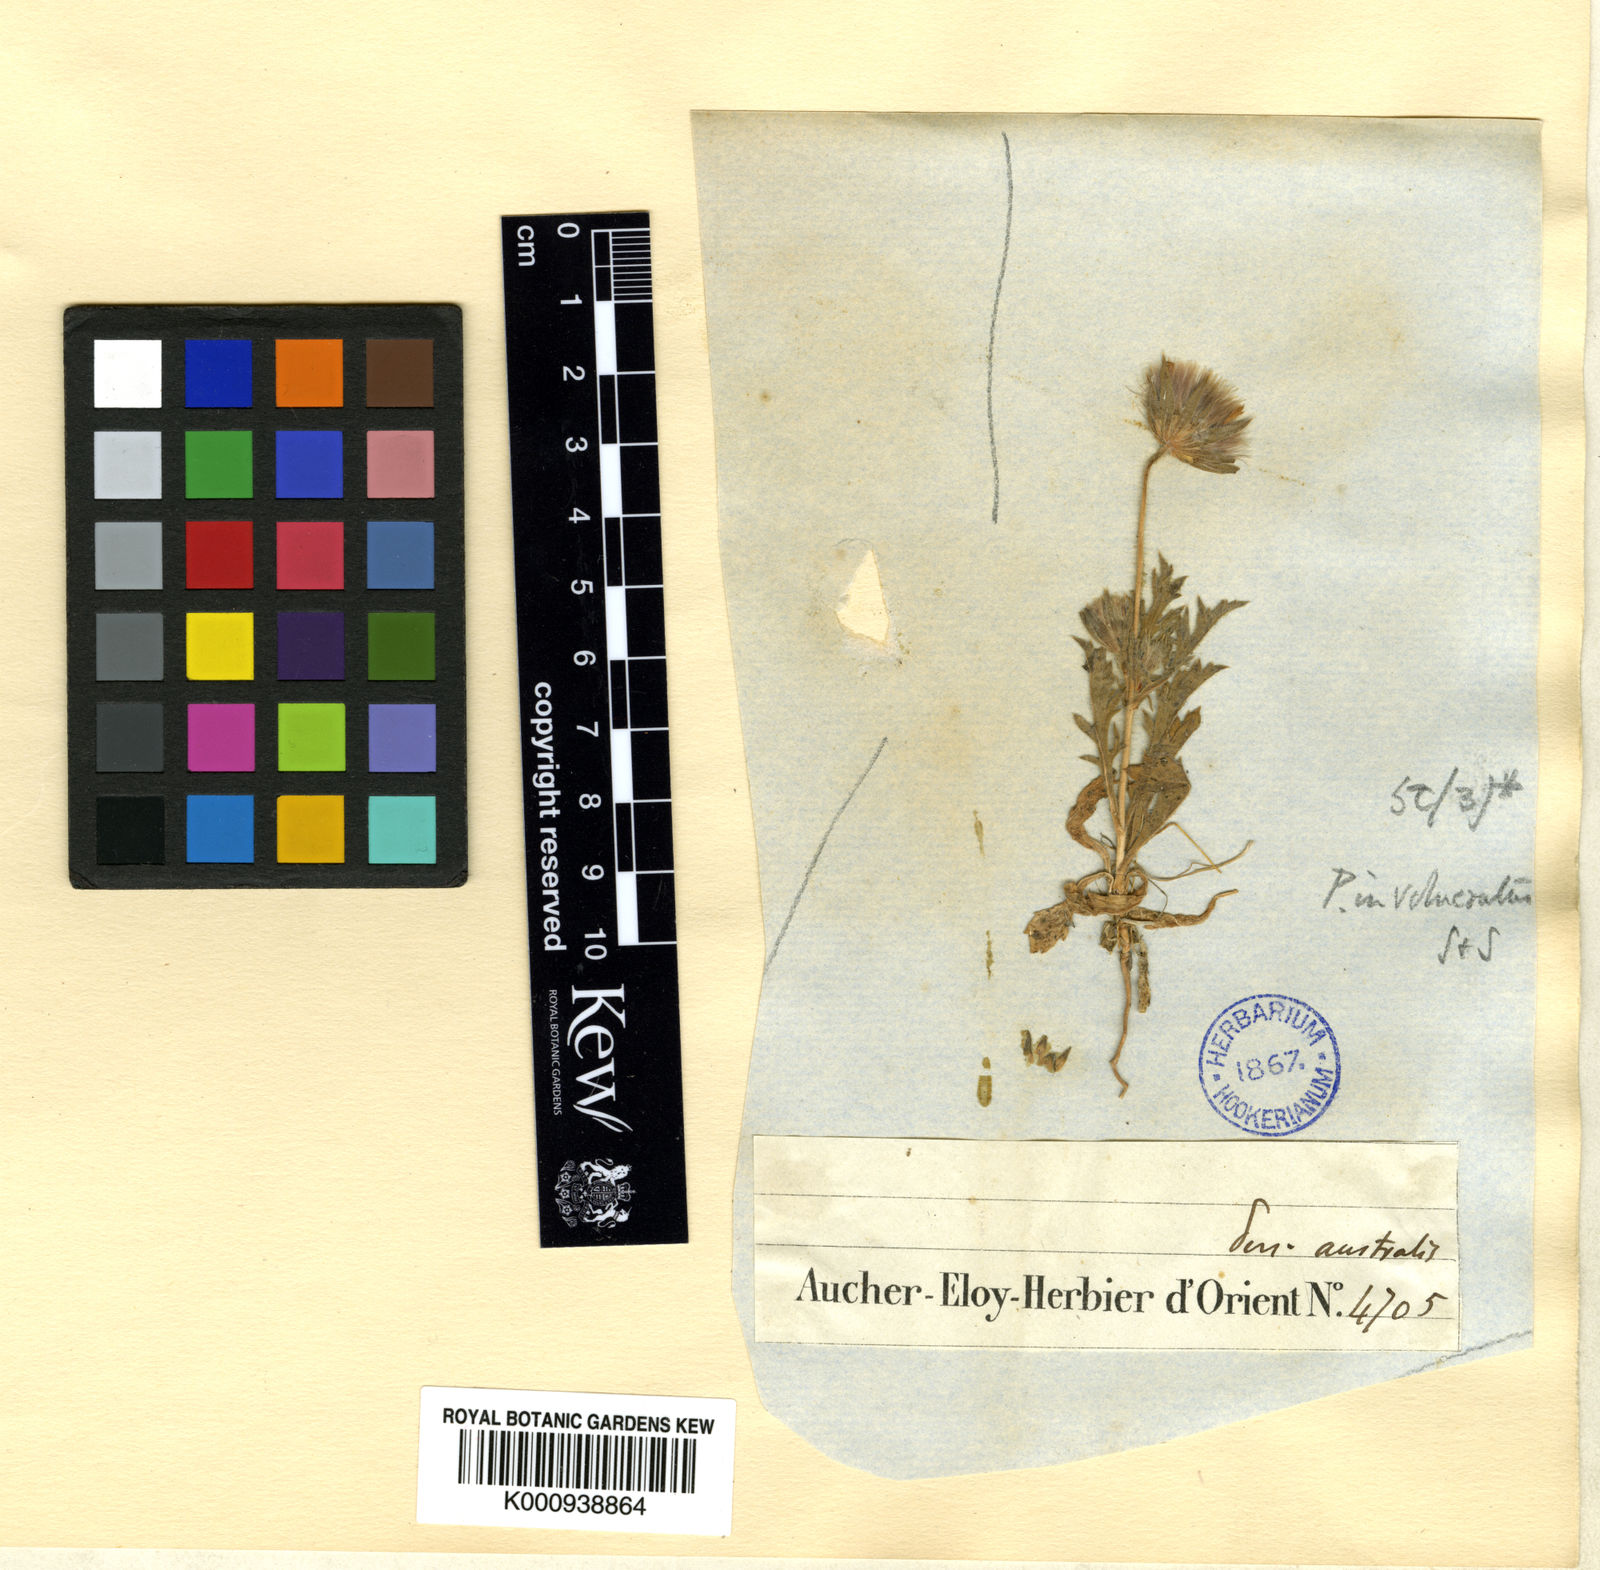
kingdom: Plantae
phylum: Tracheophyta
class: Magnoliopsida
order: Dipsacales
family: Caprifoliaceae
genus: Pterocephalus
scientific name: Pterocephalus brevis
